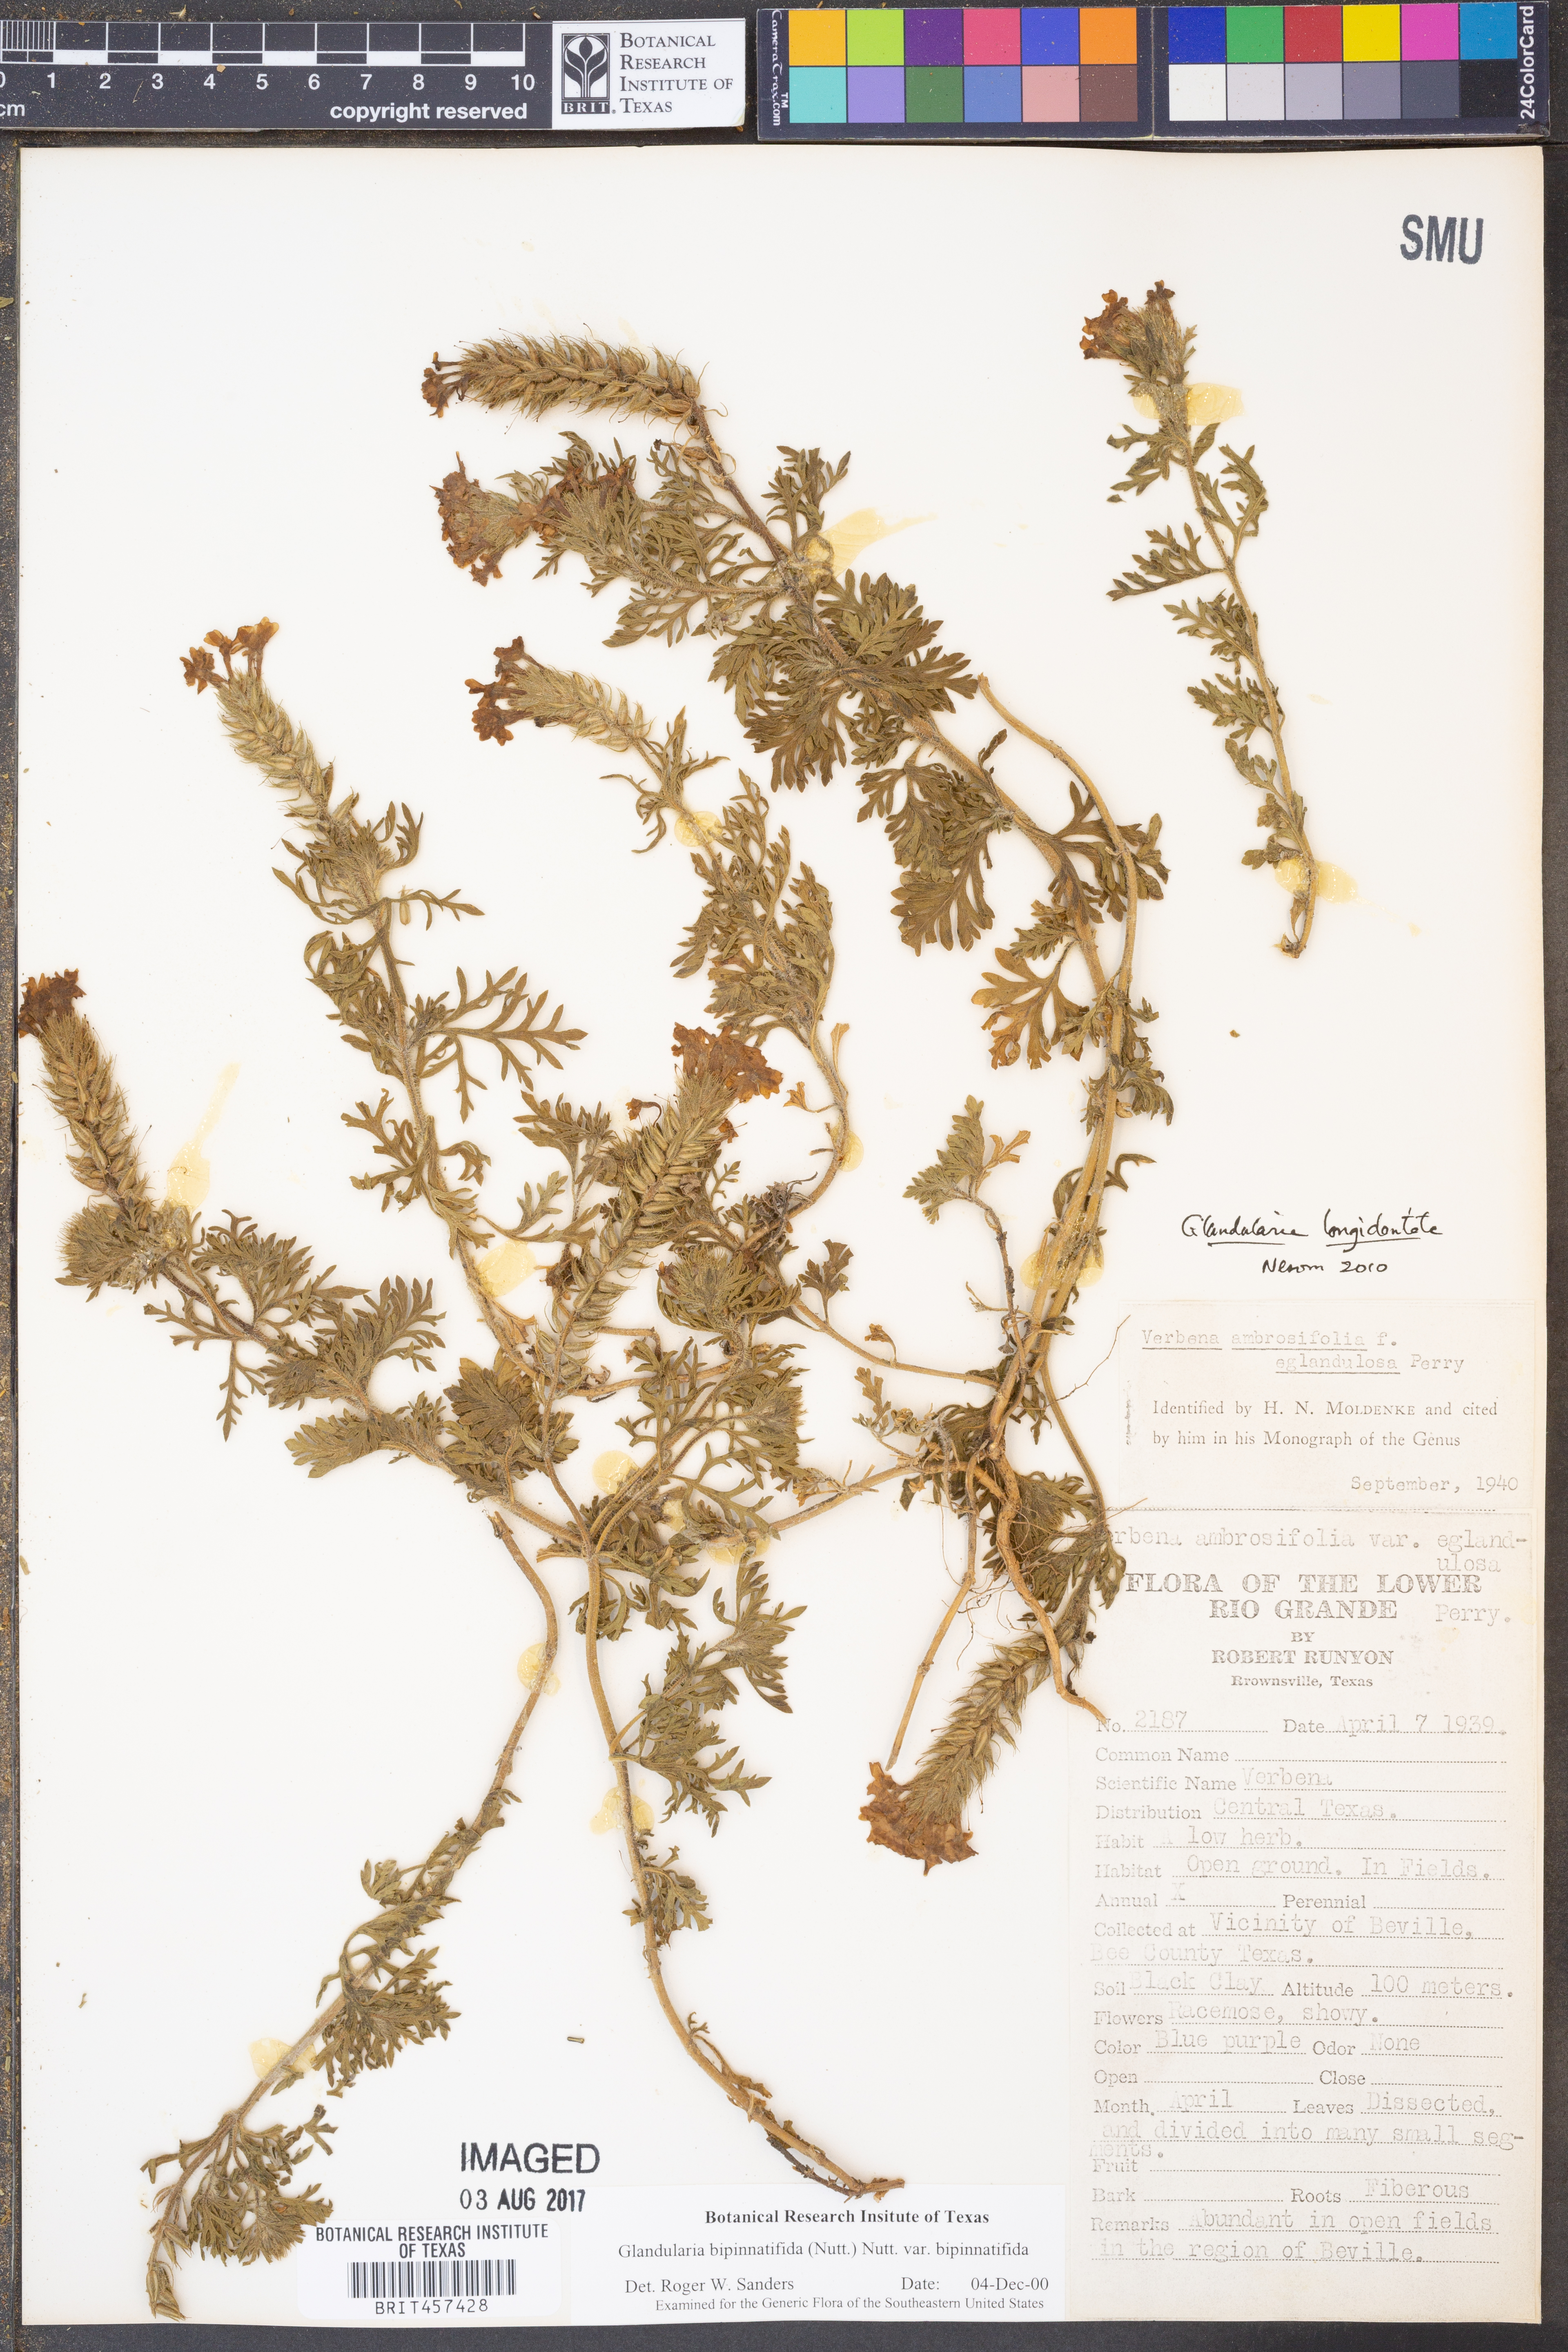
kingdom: Plantae
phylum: Tracheophyta
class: Magnoliopsida
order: Lamiales
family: Verbenaceae
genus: Verbena
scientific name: Verbena bipinnatifida
